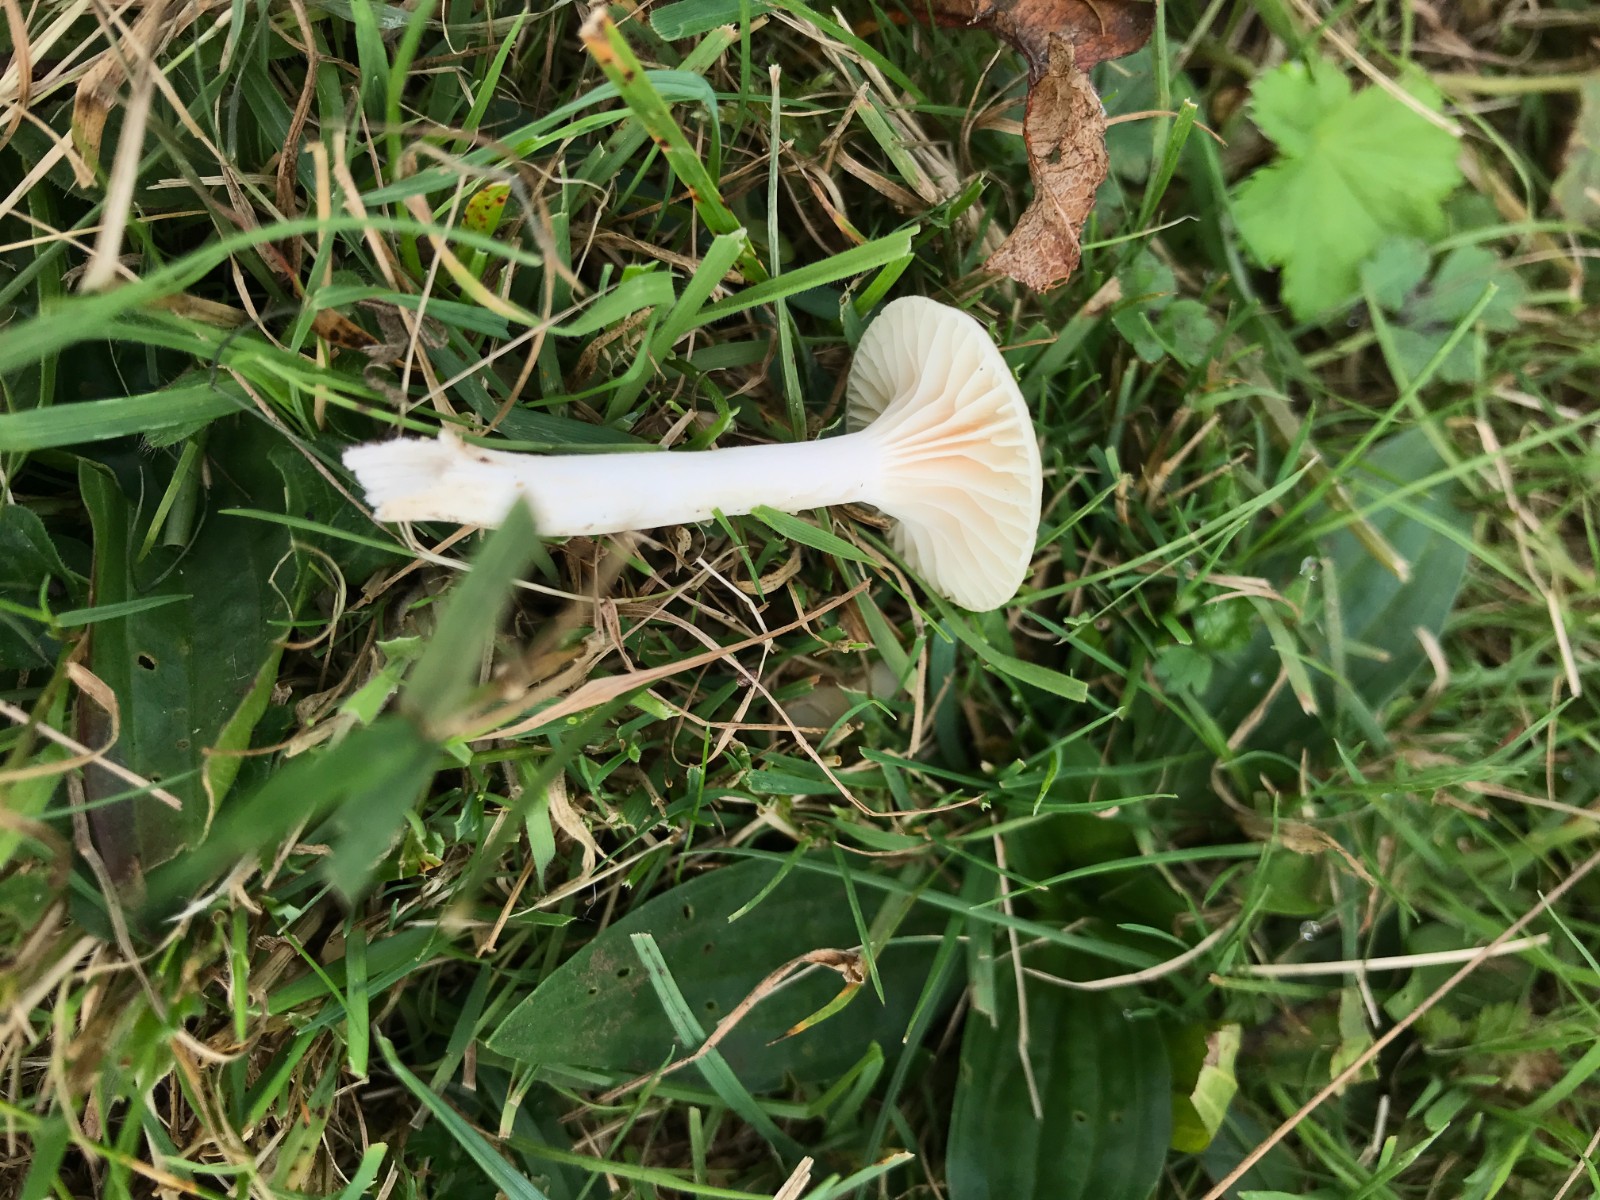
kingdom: Fungi
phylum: Basidiomycota
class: Agaricomycetes
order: Agaricales
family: Hygrophoraceae
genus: Cuphophyllus
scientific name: Cuphophyllus virgineus
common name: snehvid vokshat
